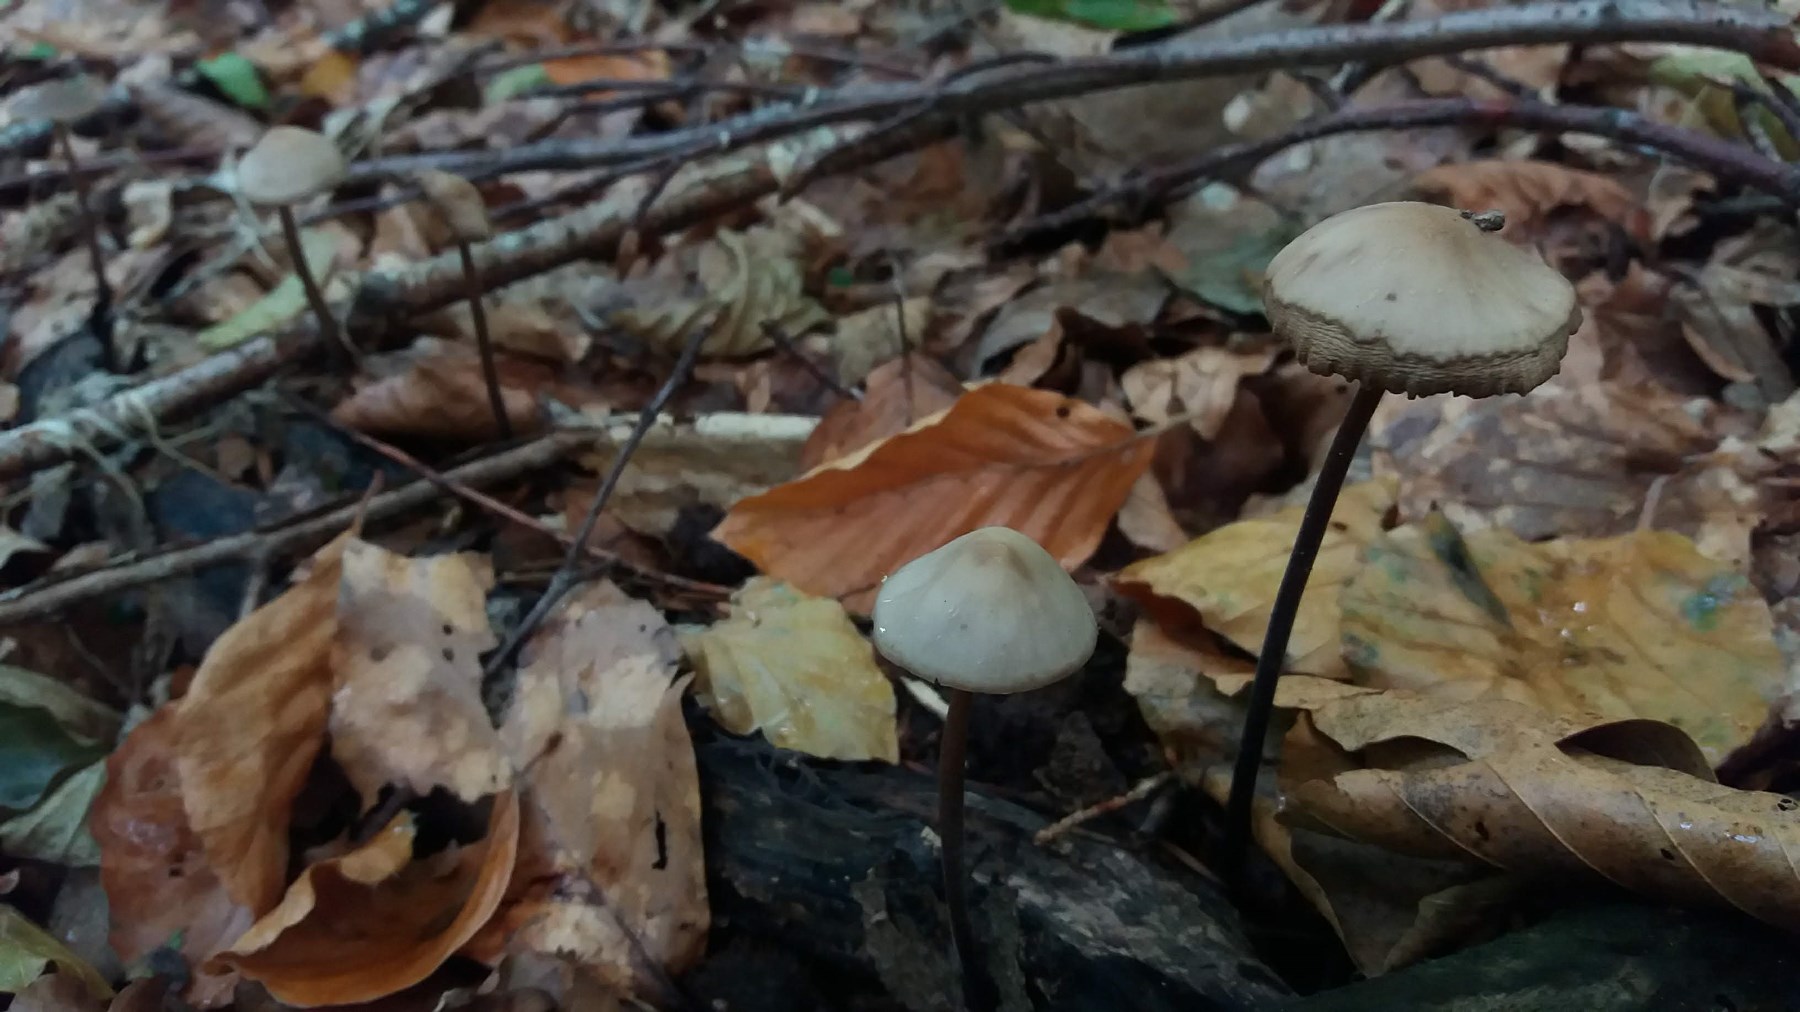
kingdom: Fungi
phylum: Basidiomycota
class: Agaricomycetes
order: Agaricales
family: Omphalotaceae
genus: Mycetinis
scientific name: Mycetinis alliaceus
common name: stor løghat
